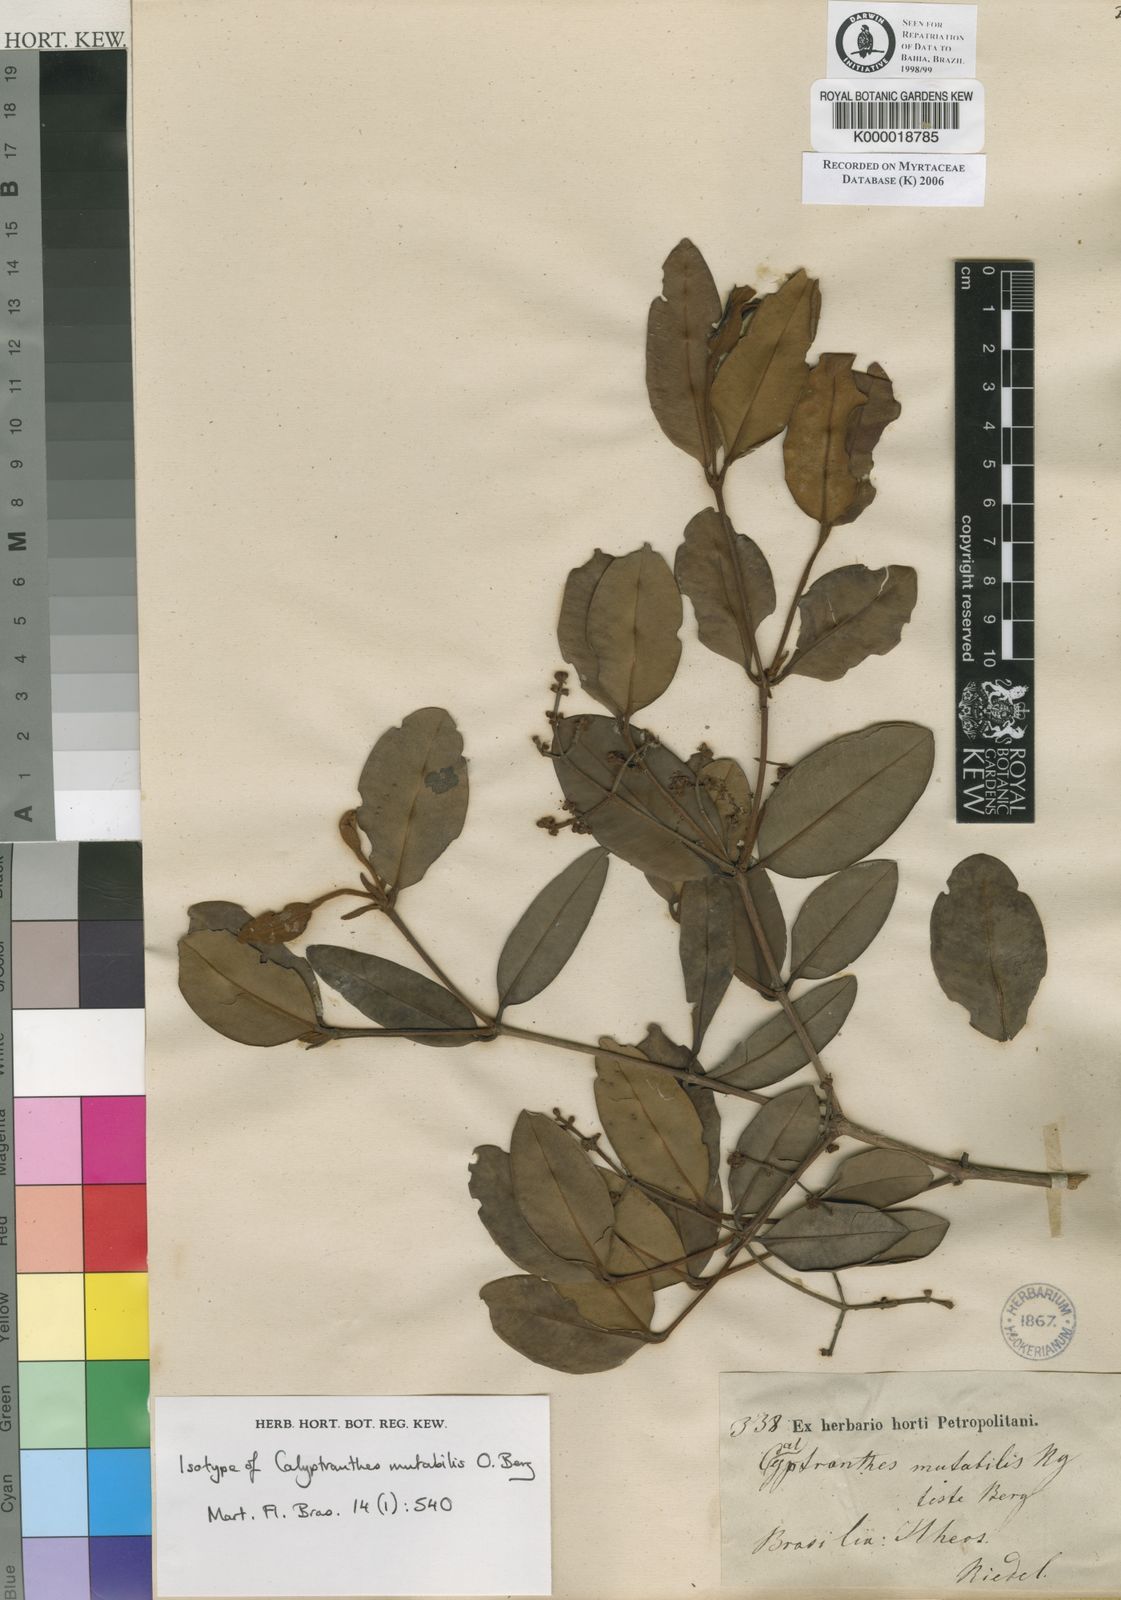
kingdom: Plantae
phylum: Tracheophyta
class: Magnoliopsida
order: Myrtales
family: Myrtaceae
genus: Myrcia
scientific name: Myrcia neobrasiliensis
